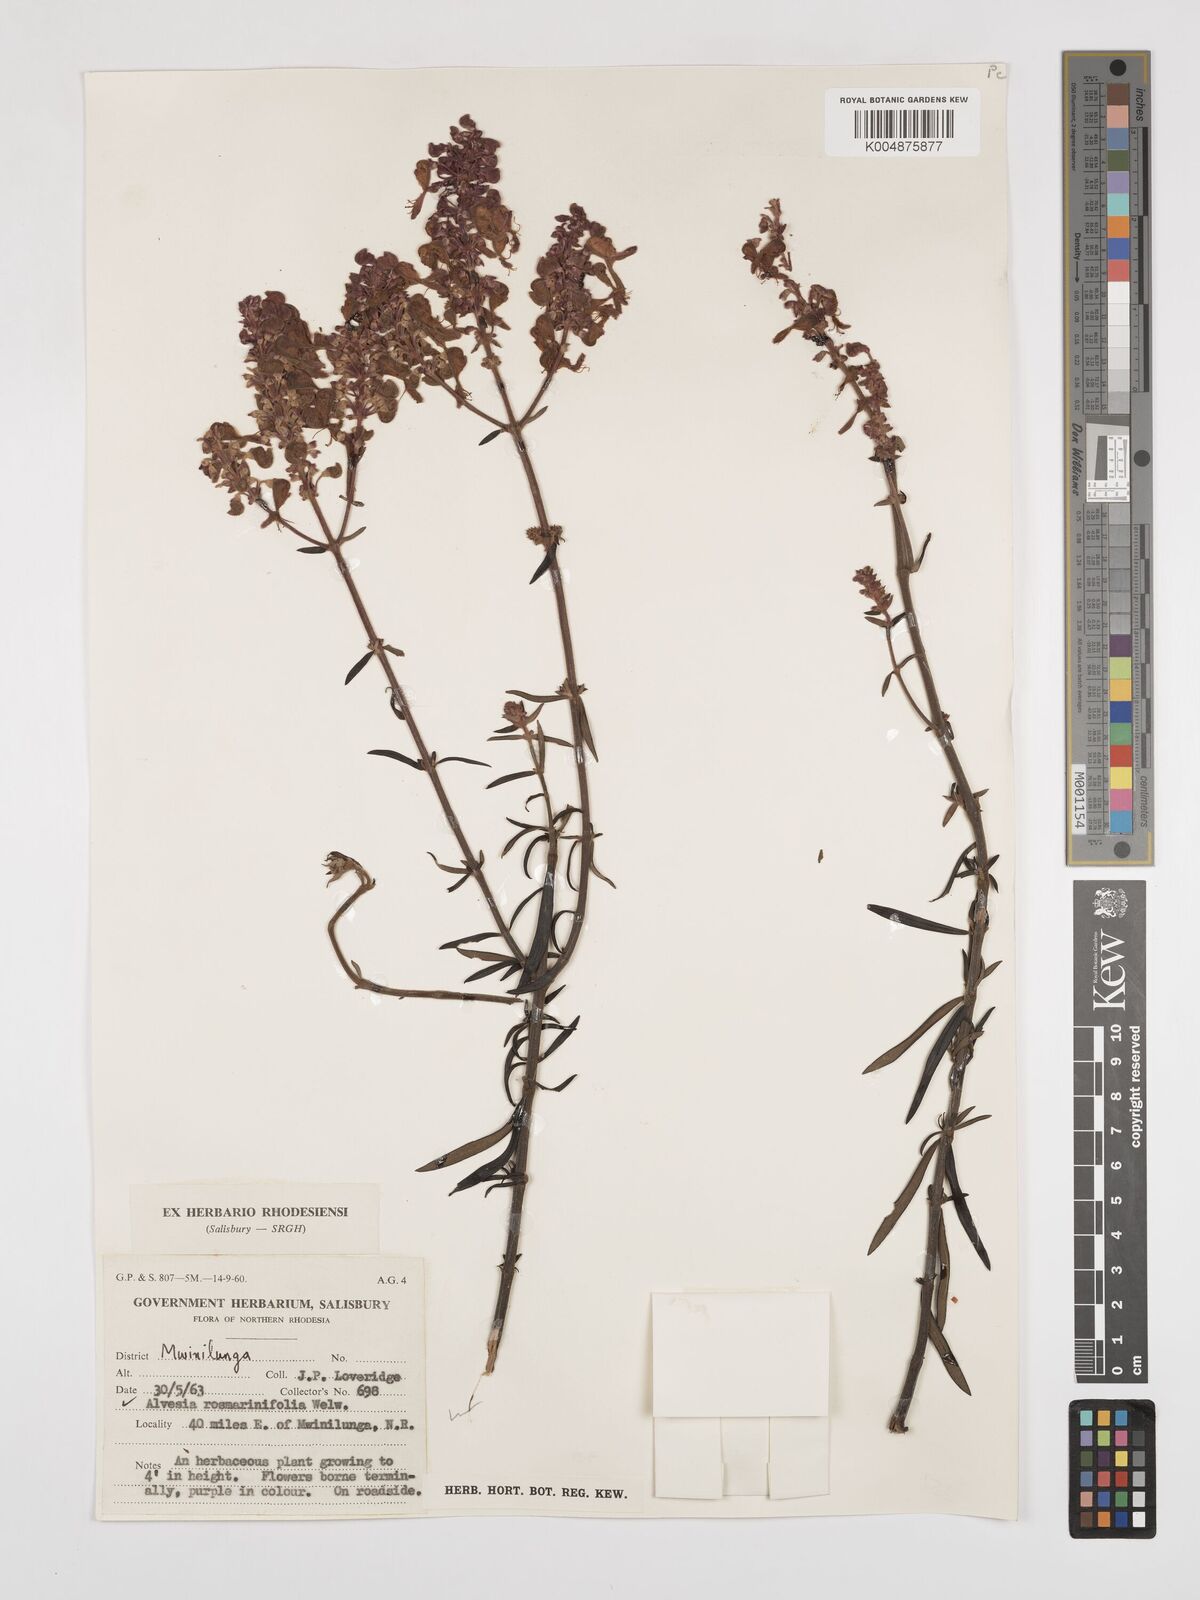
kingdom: Plantae
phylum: Tracheophyta
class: Magnoliopsida
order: Lamiales
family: Lamiaceae
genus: Alvesia
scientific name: Alvesia rosmarinifolia
